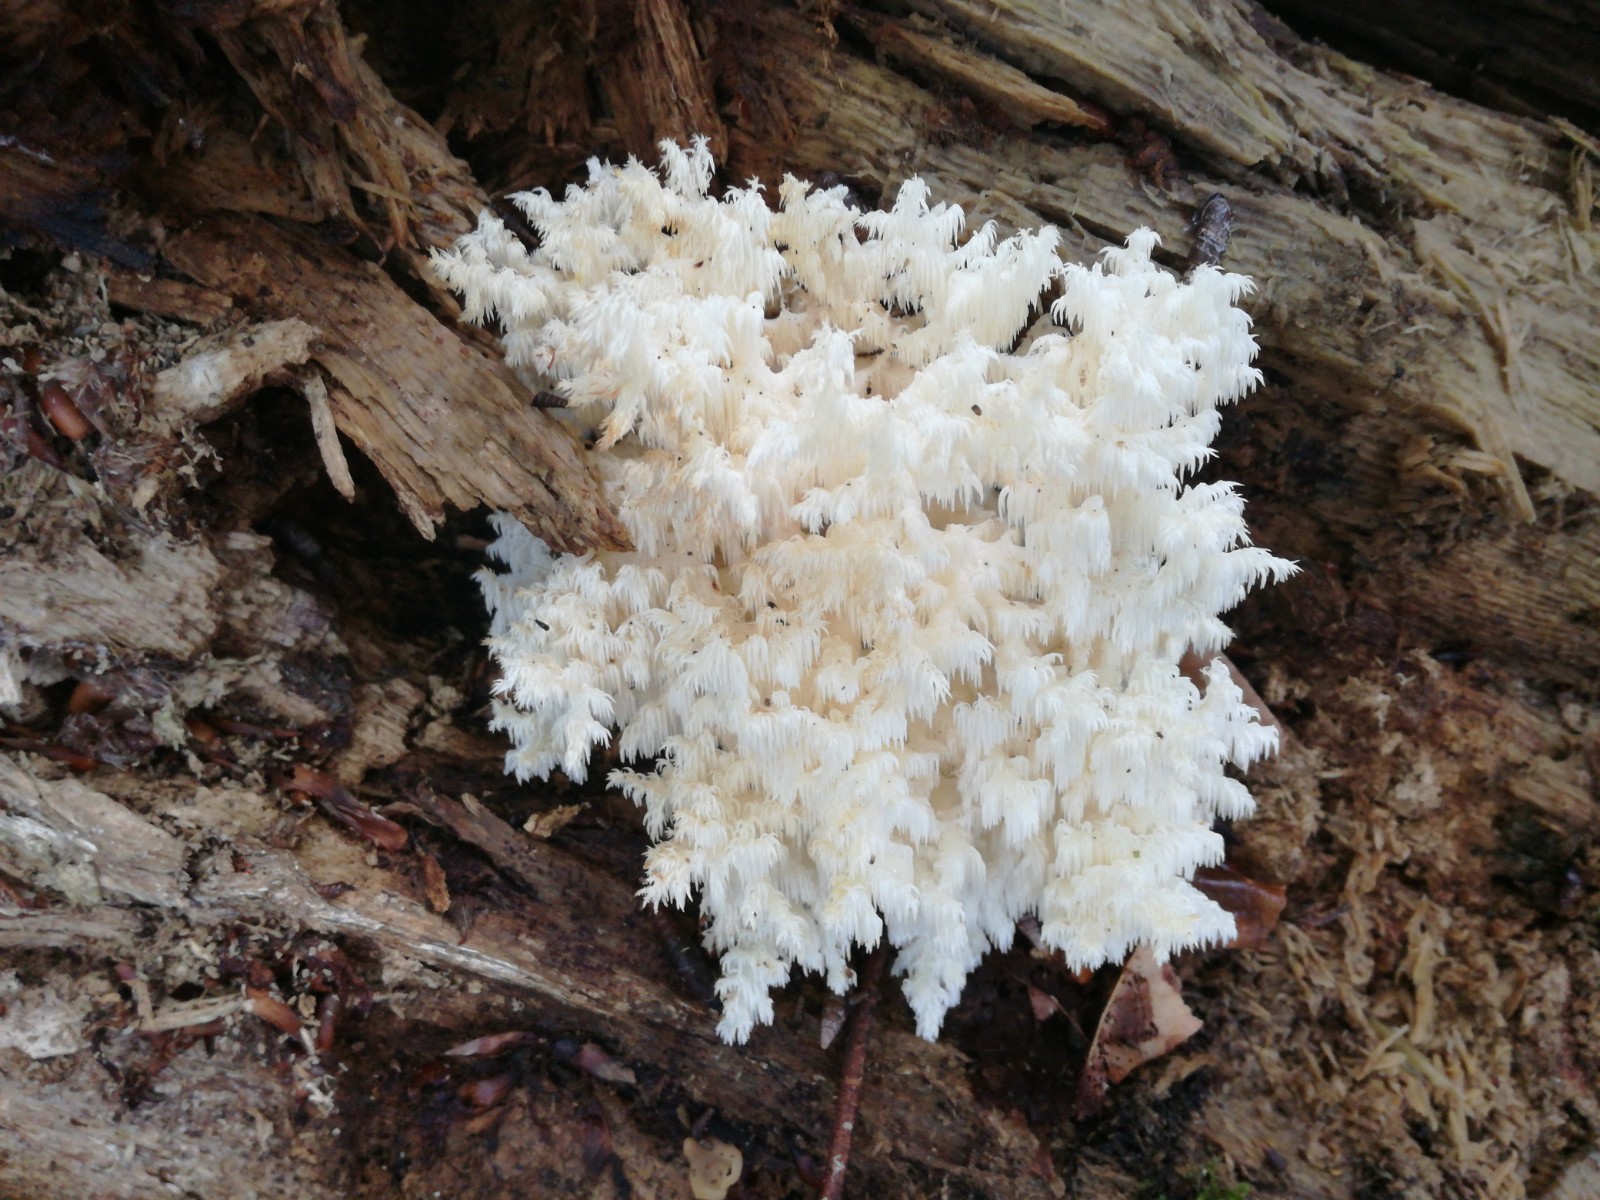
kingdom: Fungi
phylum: Basidiomycota
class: Agaricomycetes
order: Russulales
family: Hericiaceae
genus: Hericium
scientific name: Hericium coralloides
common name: koralpigsvamp
